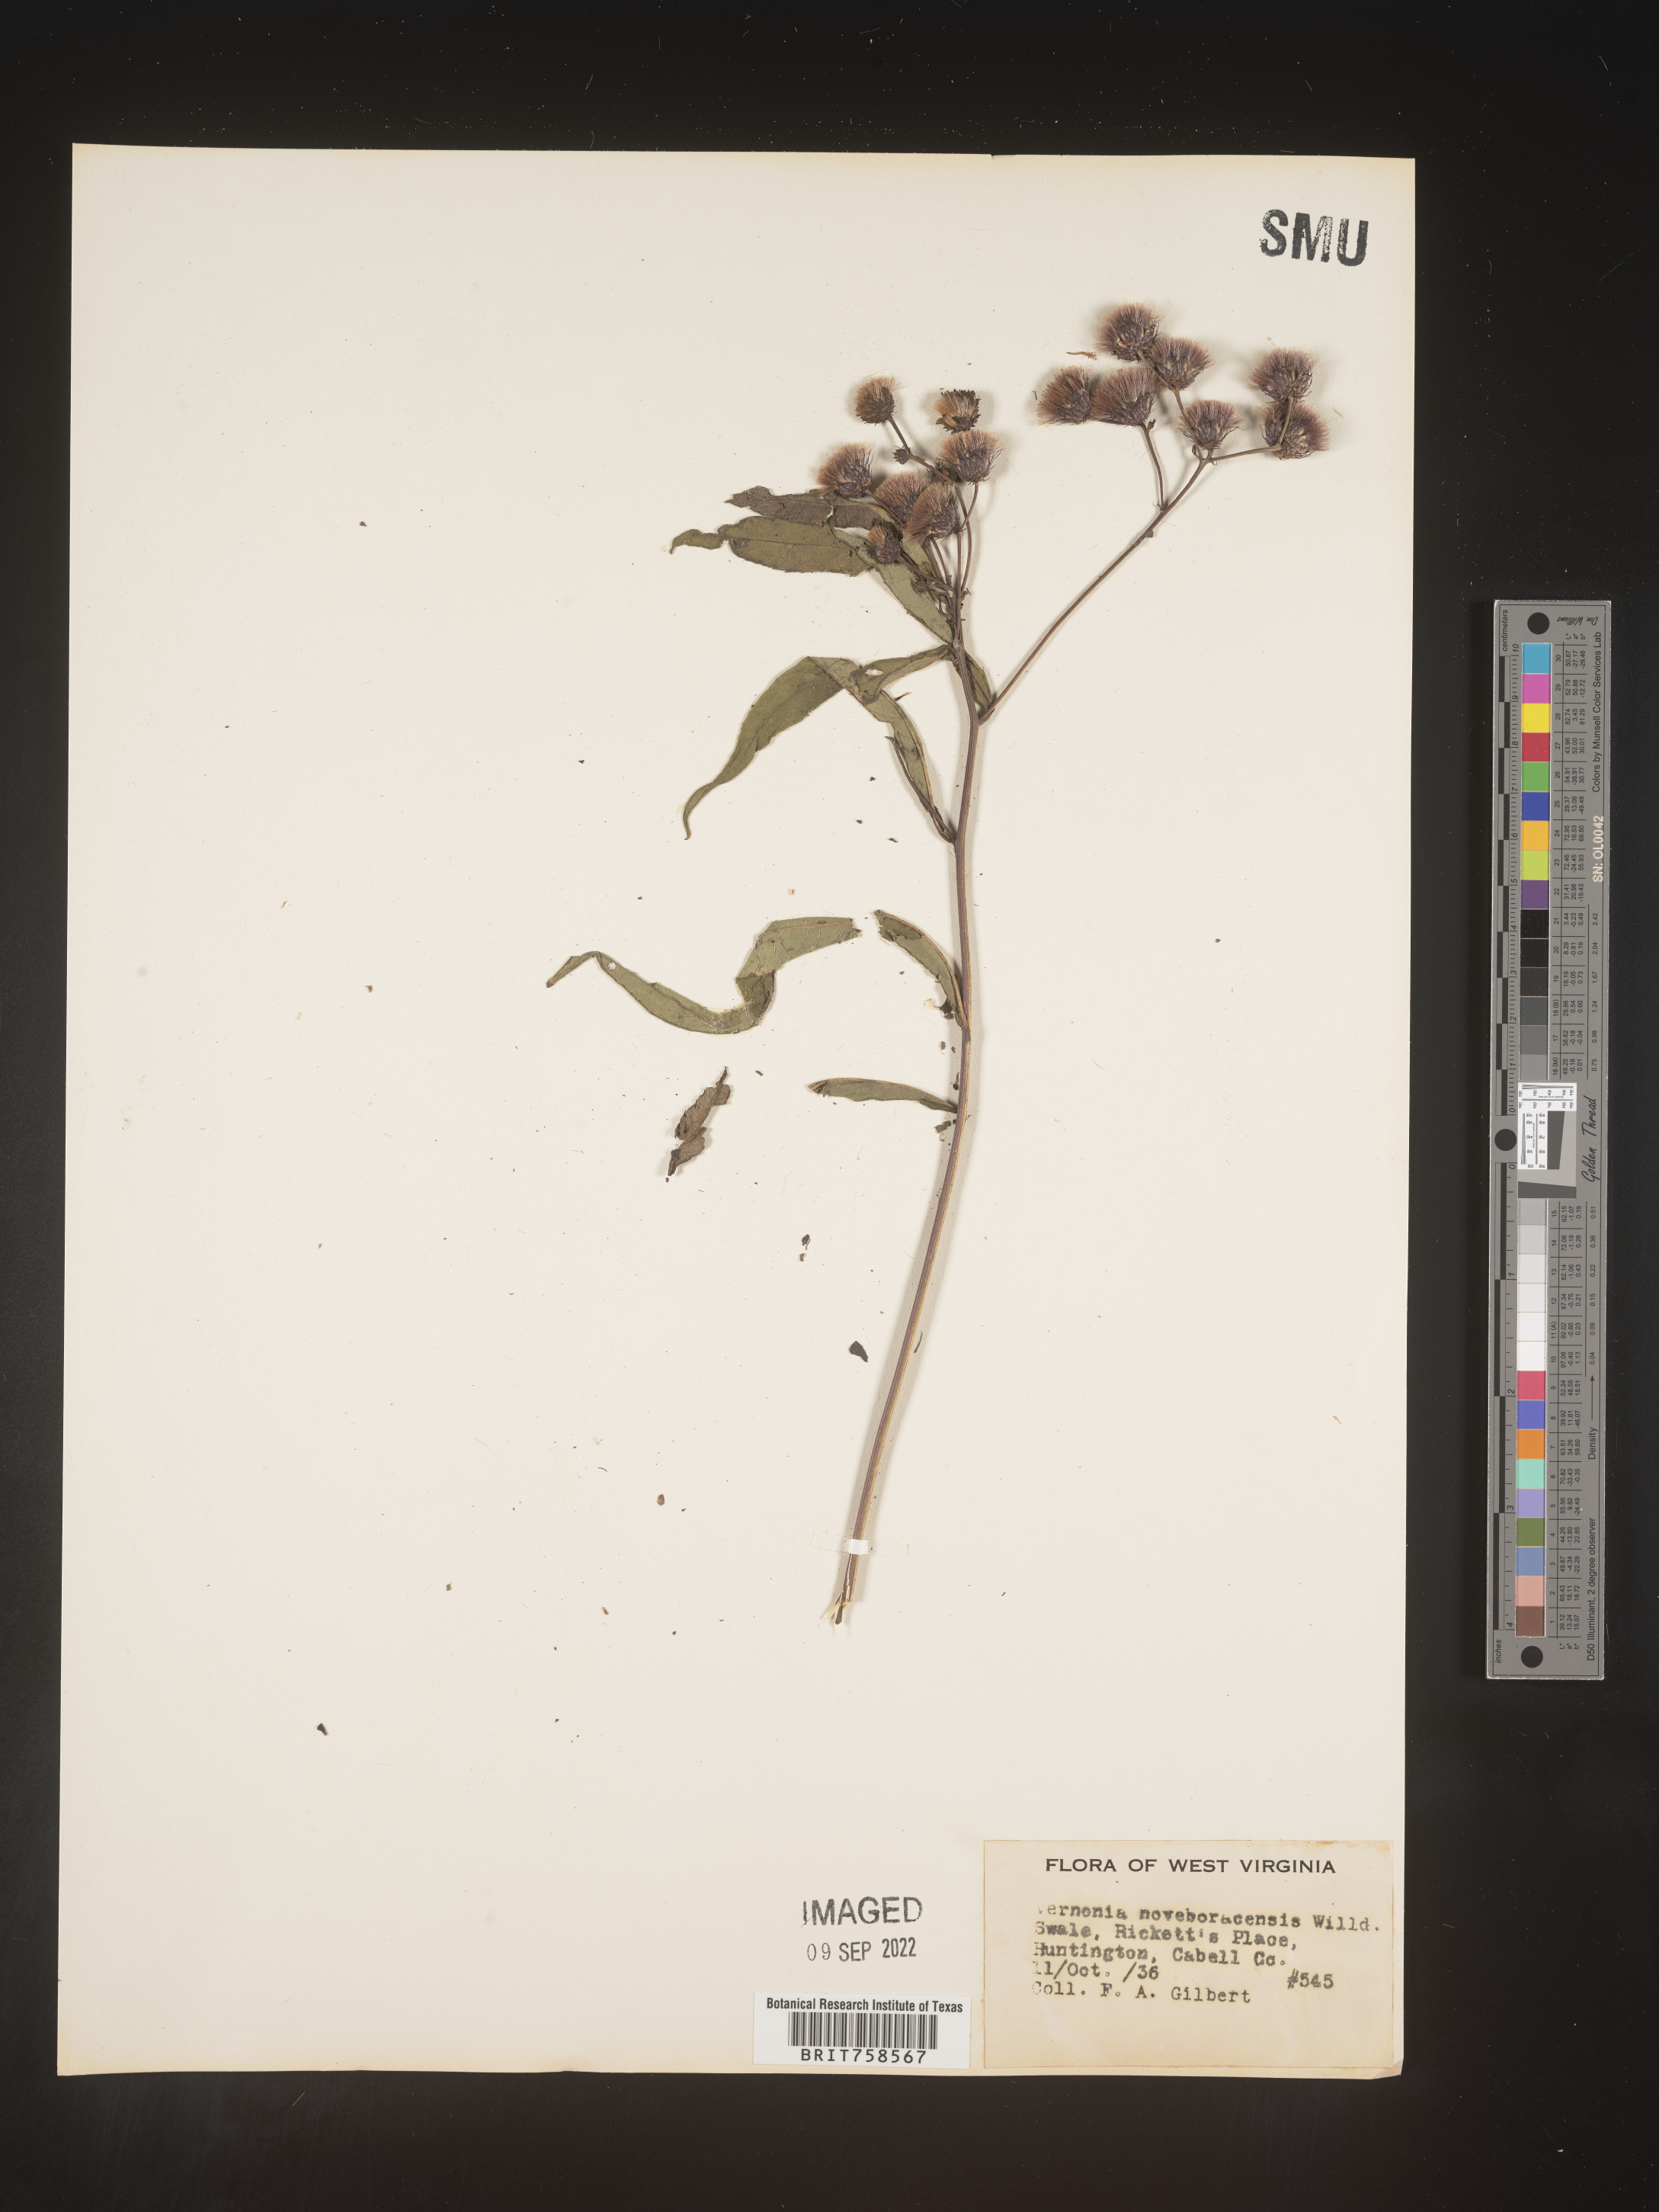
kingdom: Plantae
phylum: Tracheophyta
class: Magnoliopsida
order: Asterales
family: Asteraceae
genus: Vernonia
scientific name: Vernonia noveboracensis
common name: New york ironweed
